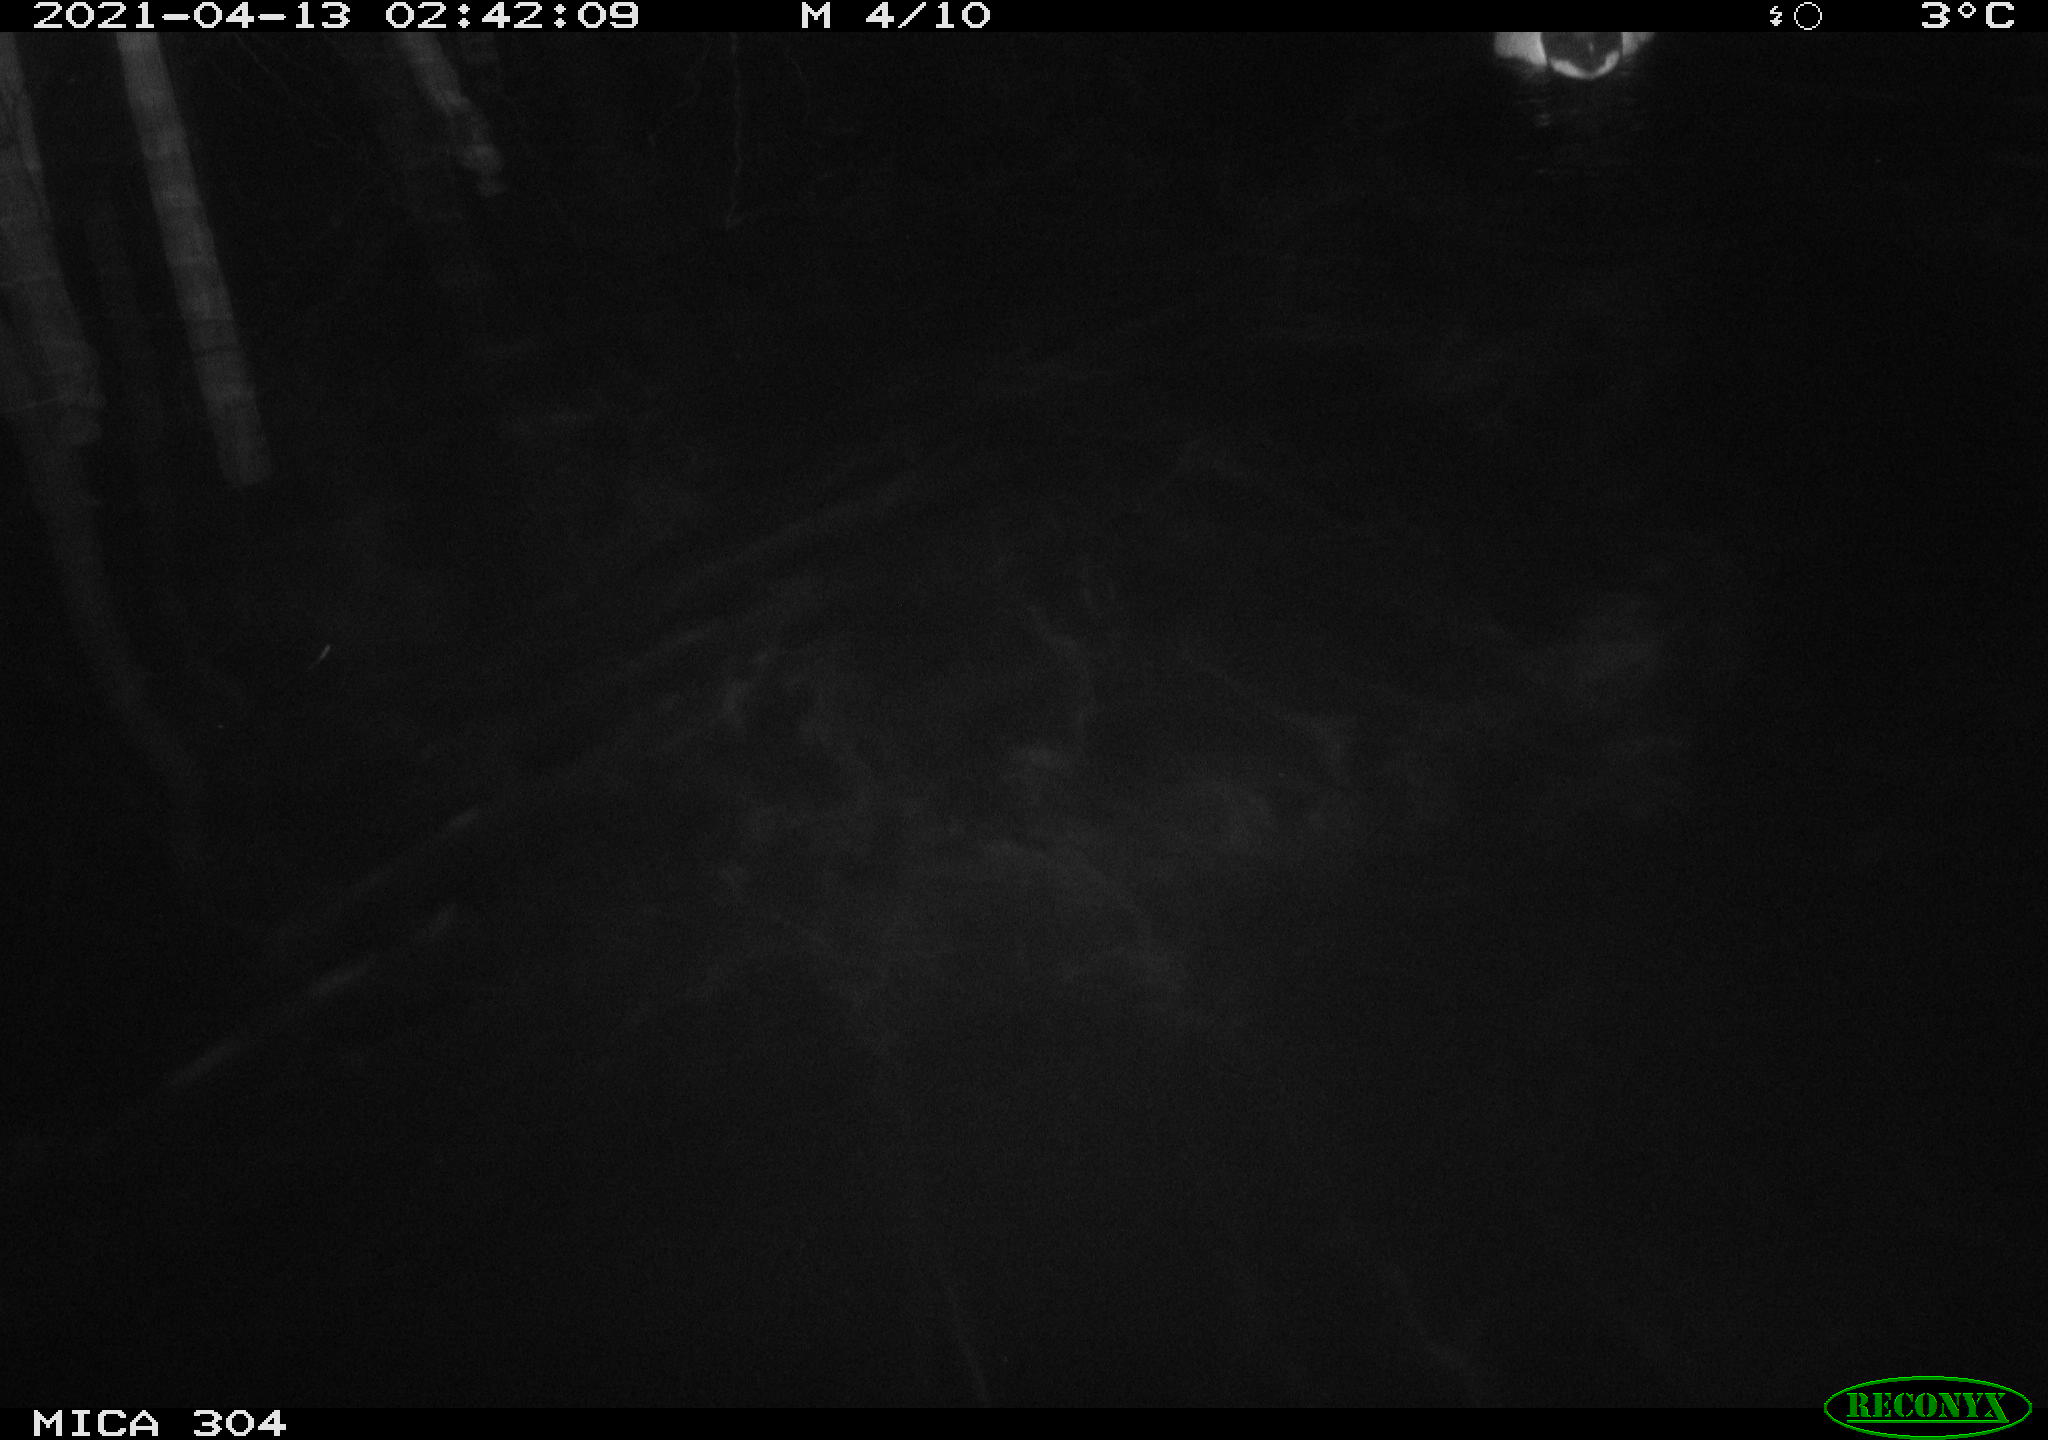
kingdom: Animalia
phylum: Chordata
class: Aves
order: Anseriformes
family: Anatidae
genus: Anas
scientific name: Anas
